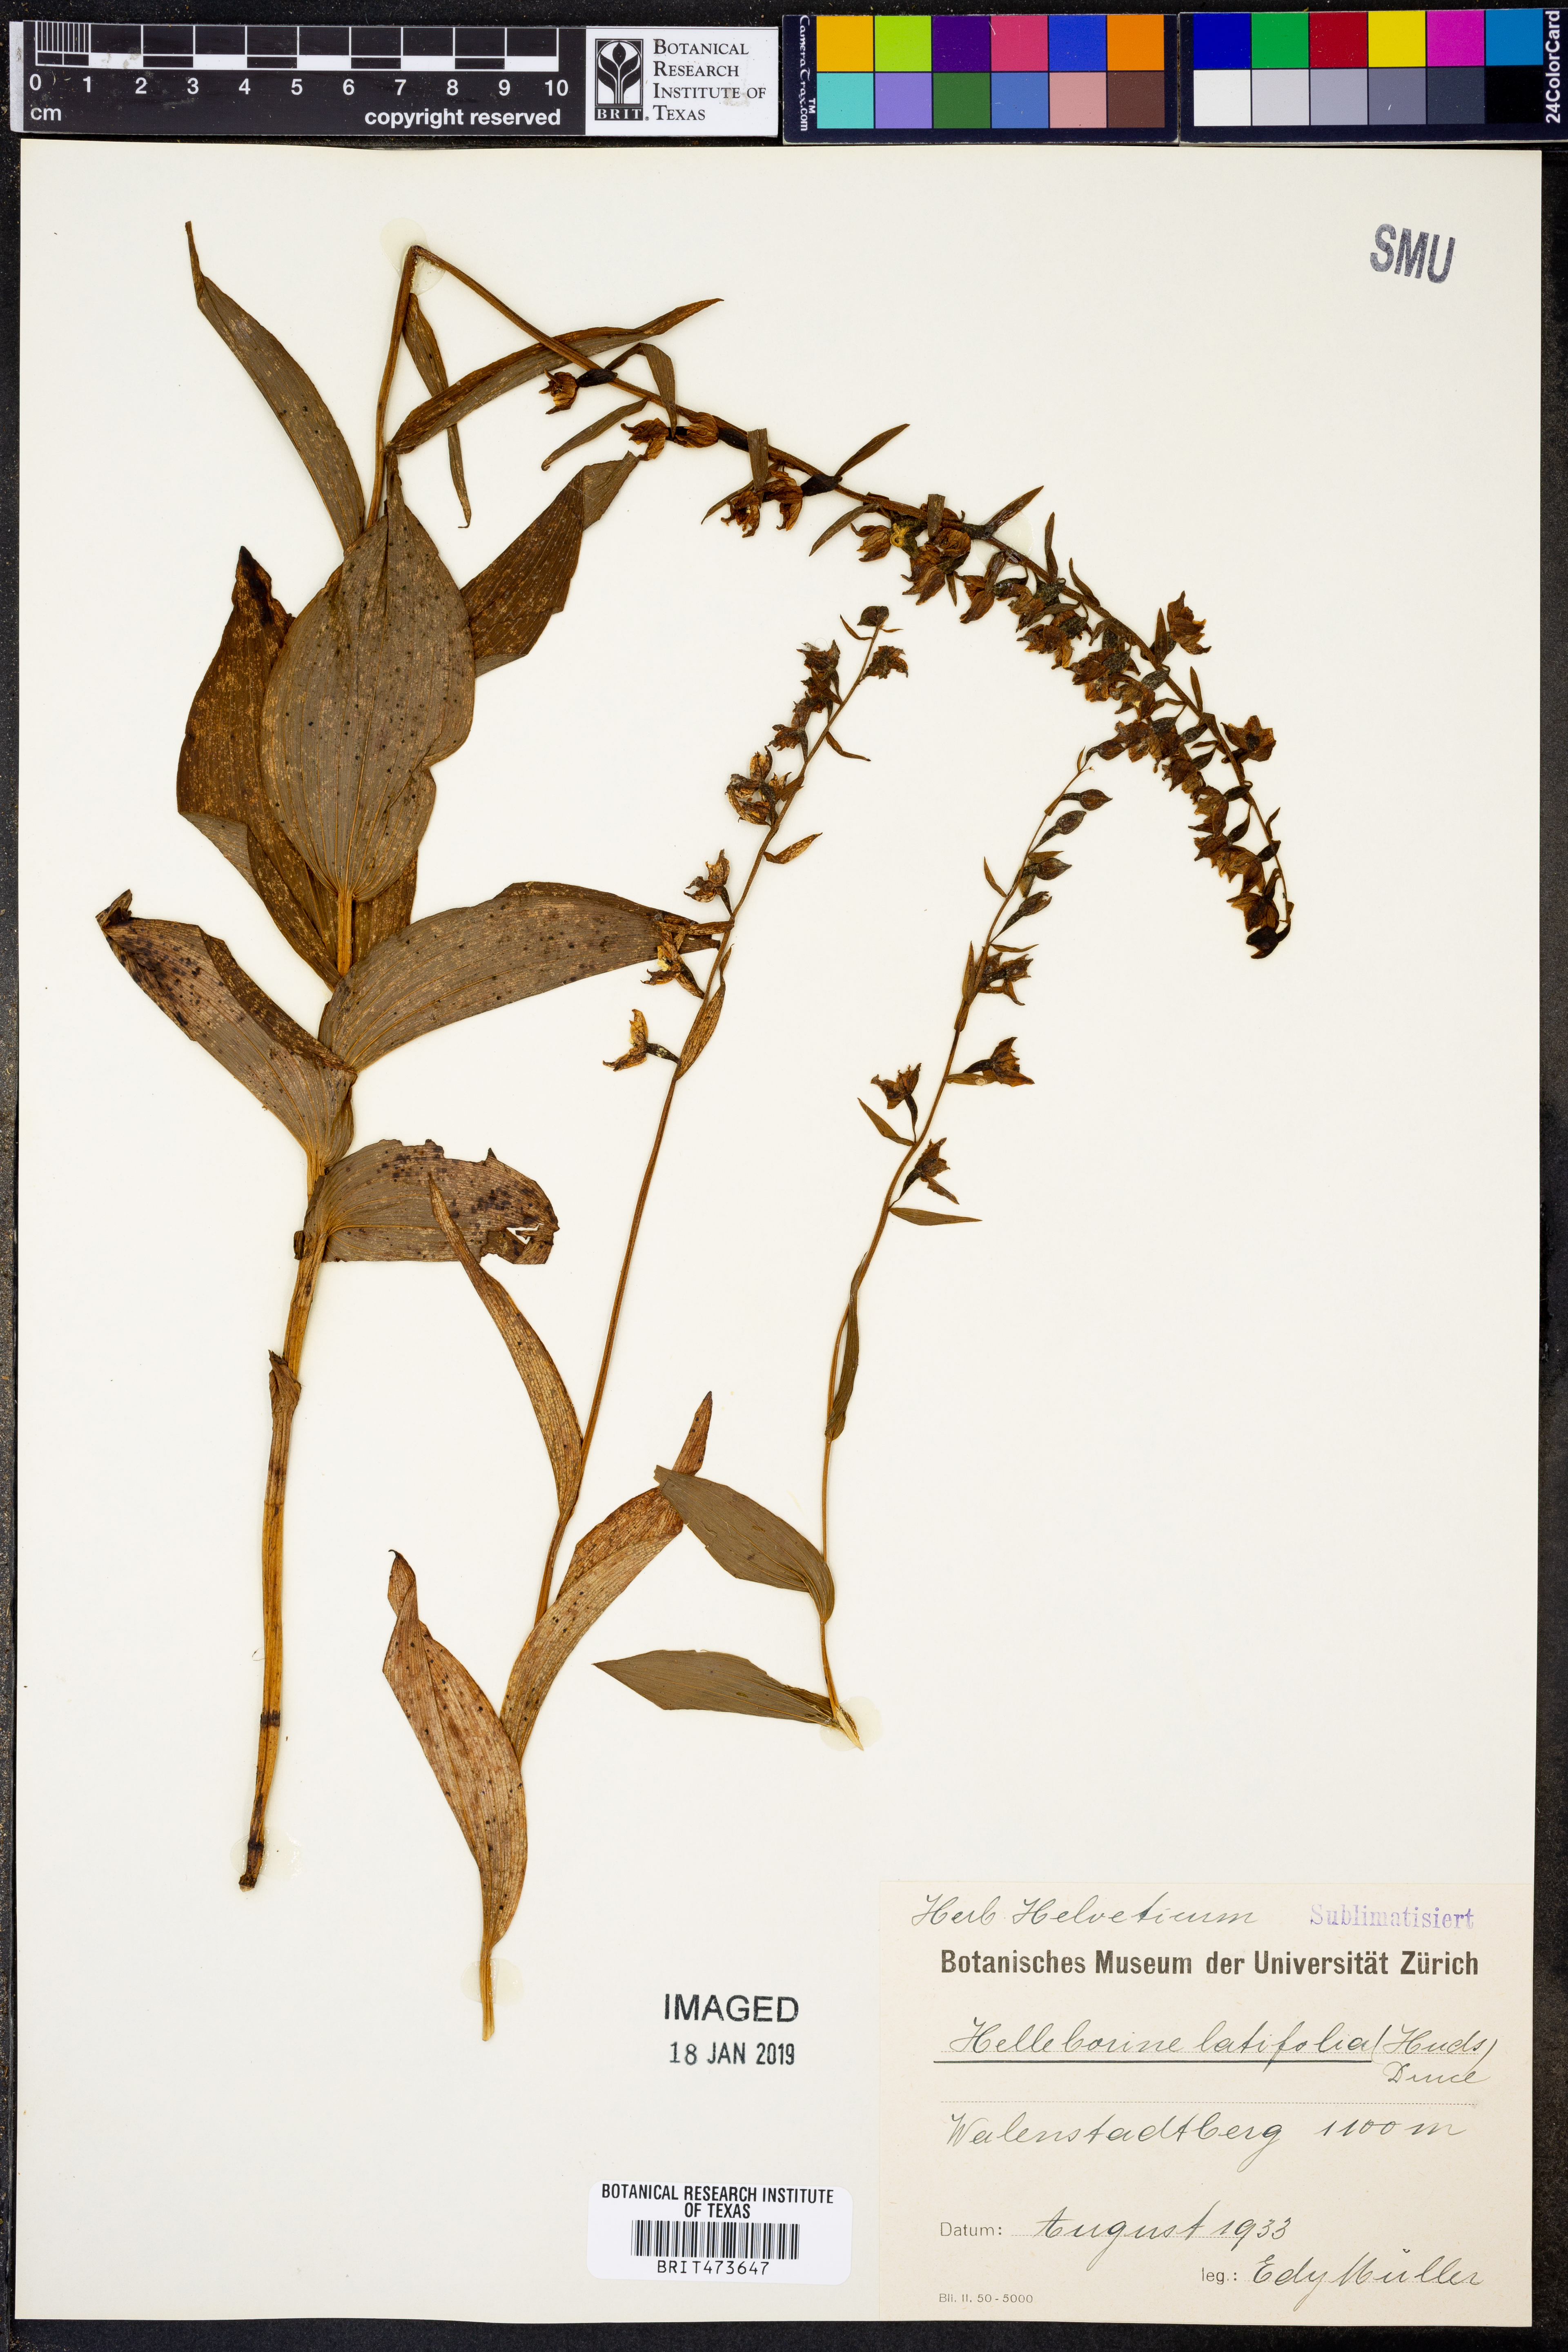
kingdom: Plantae
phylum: Tracheophyta
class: Liliopsida
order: Asparagales
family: Orchidaceae
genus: Epipactis
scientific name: Epipactis helleborine
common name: Broad-leaved helleborine
